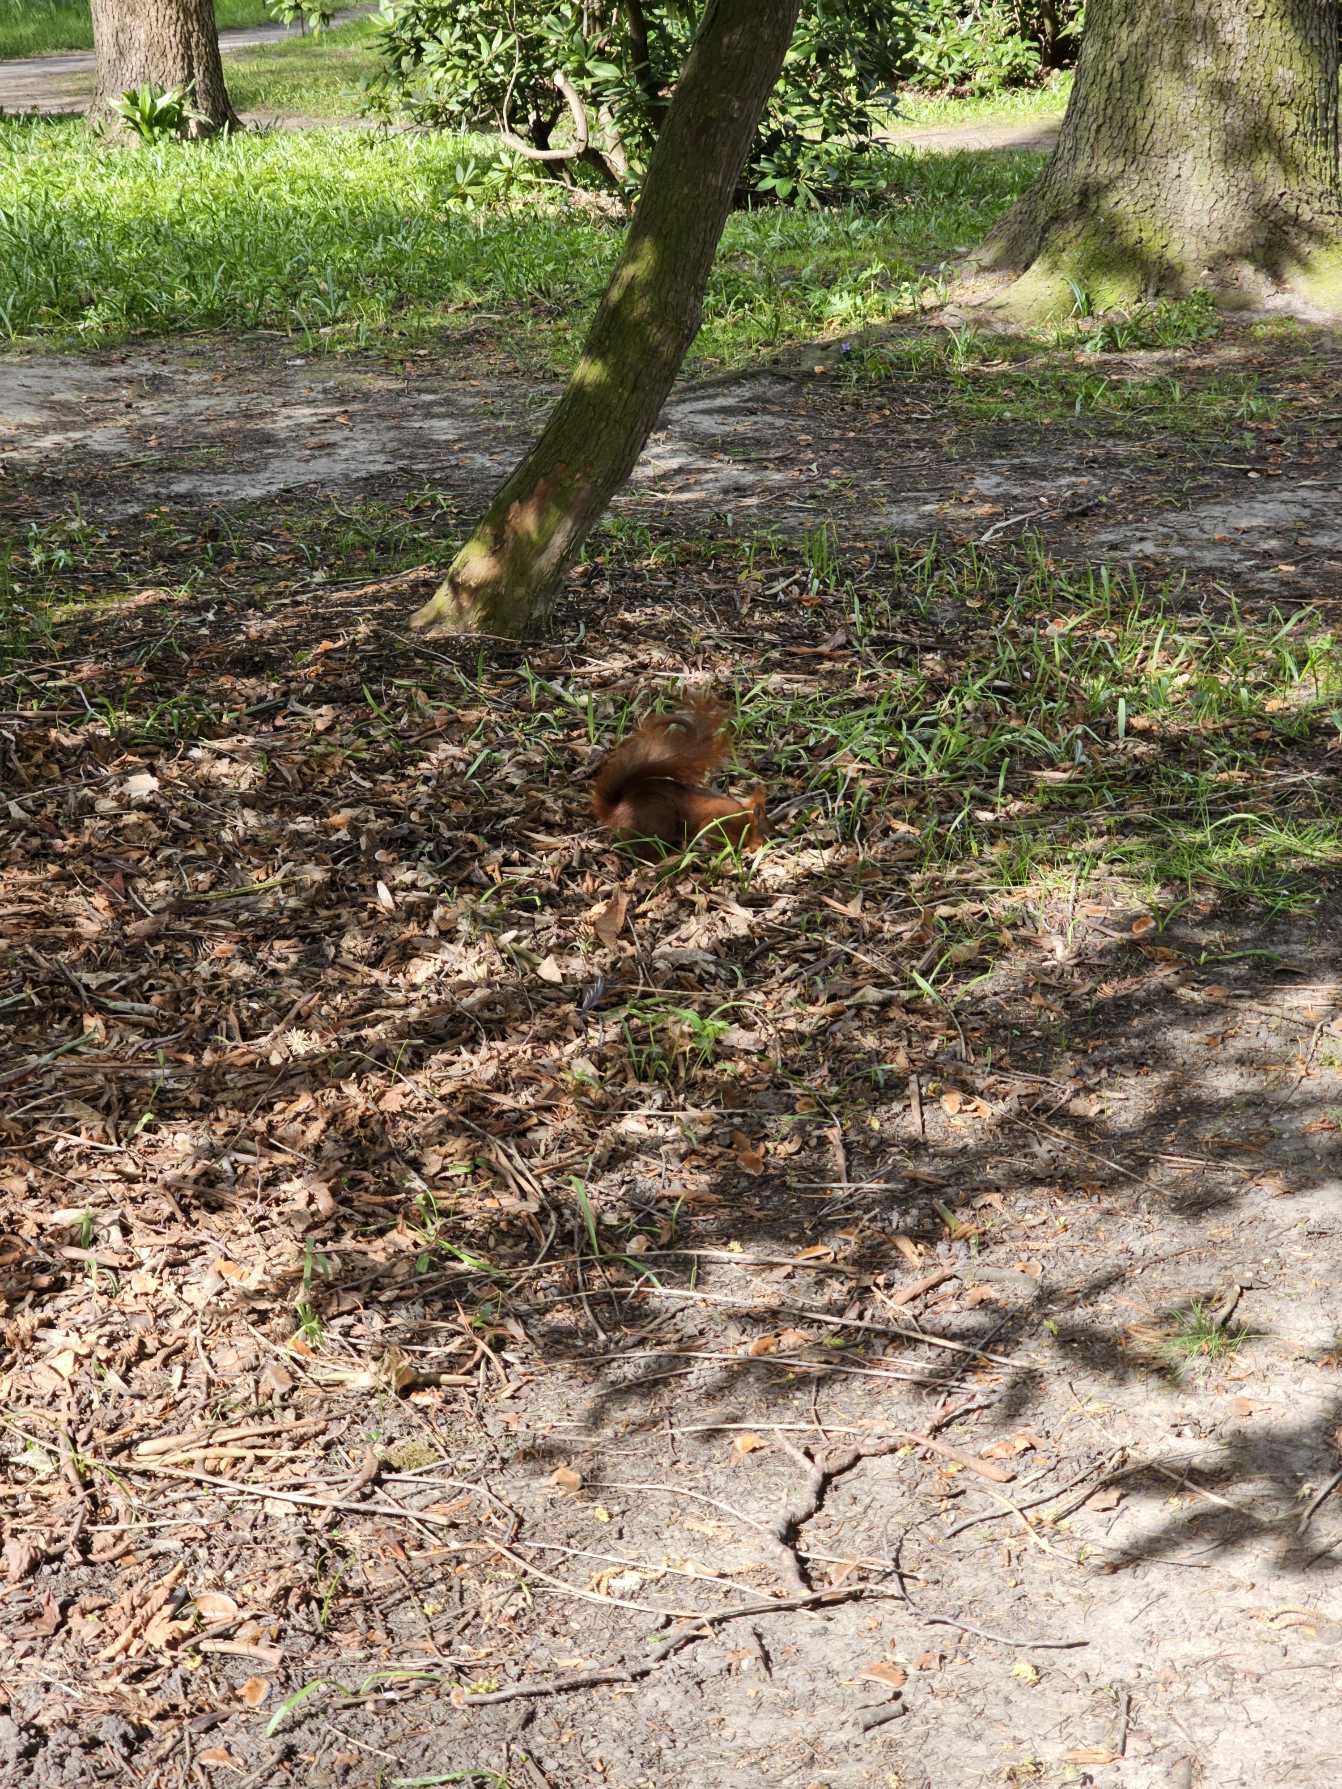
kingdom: Animalia
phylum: Chordata
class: Mammalia
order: Rodentia
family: Sciuridae
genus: Sciurus
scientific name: Sciurus vulgaris
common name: Egern
